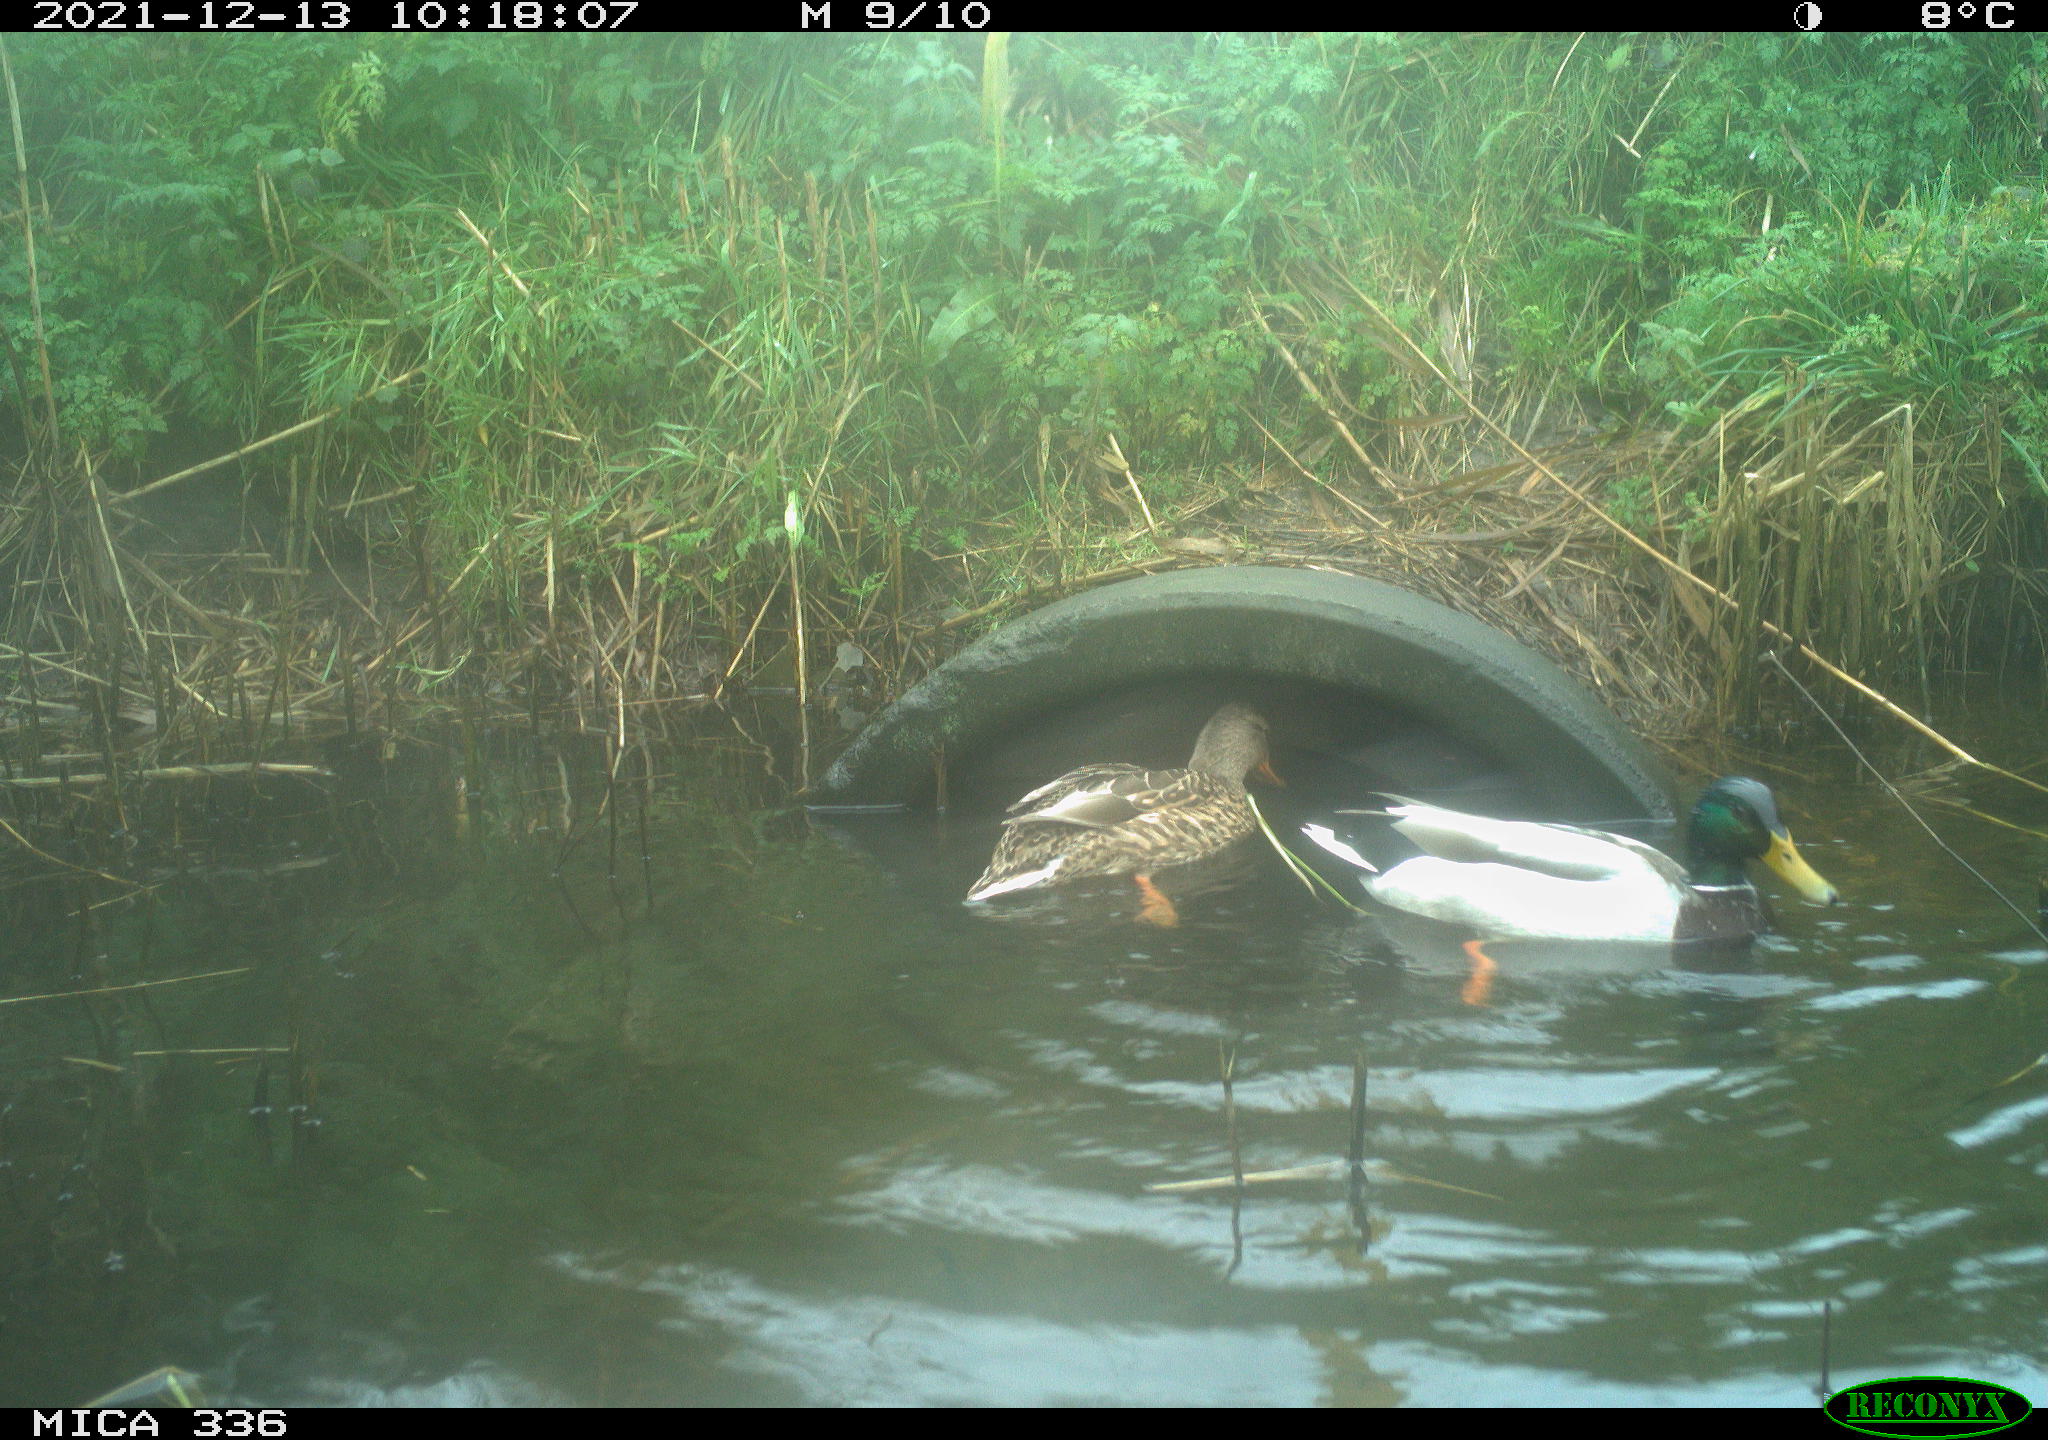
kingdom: Animalia
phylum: Chordata
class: Aves
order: Anseriformes
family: Anatidae
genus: Anas
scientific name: Anas platyrhynchos
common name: Mallard
